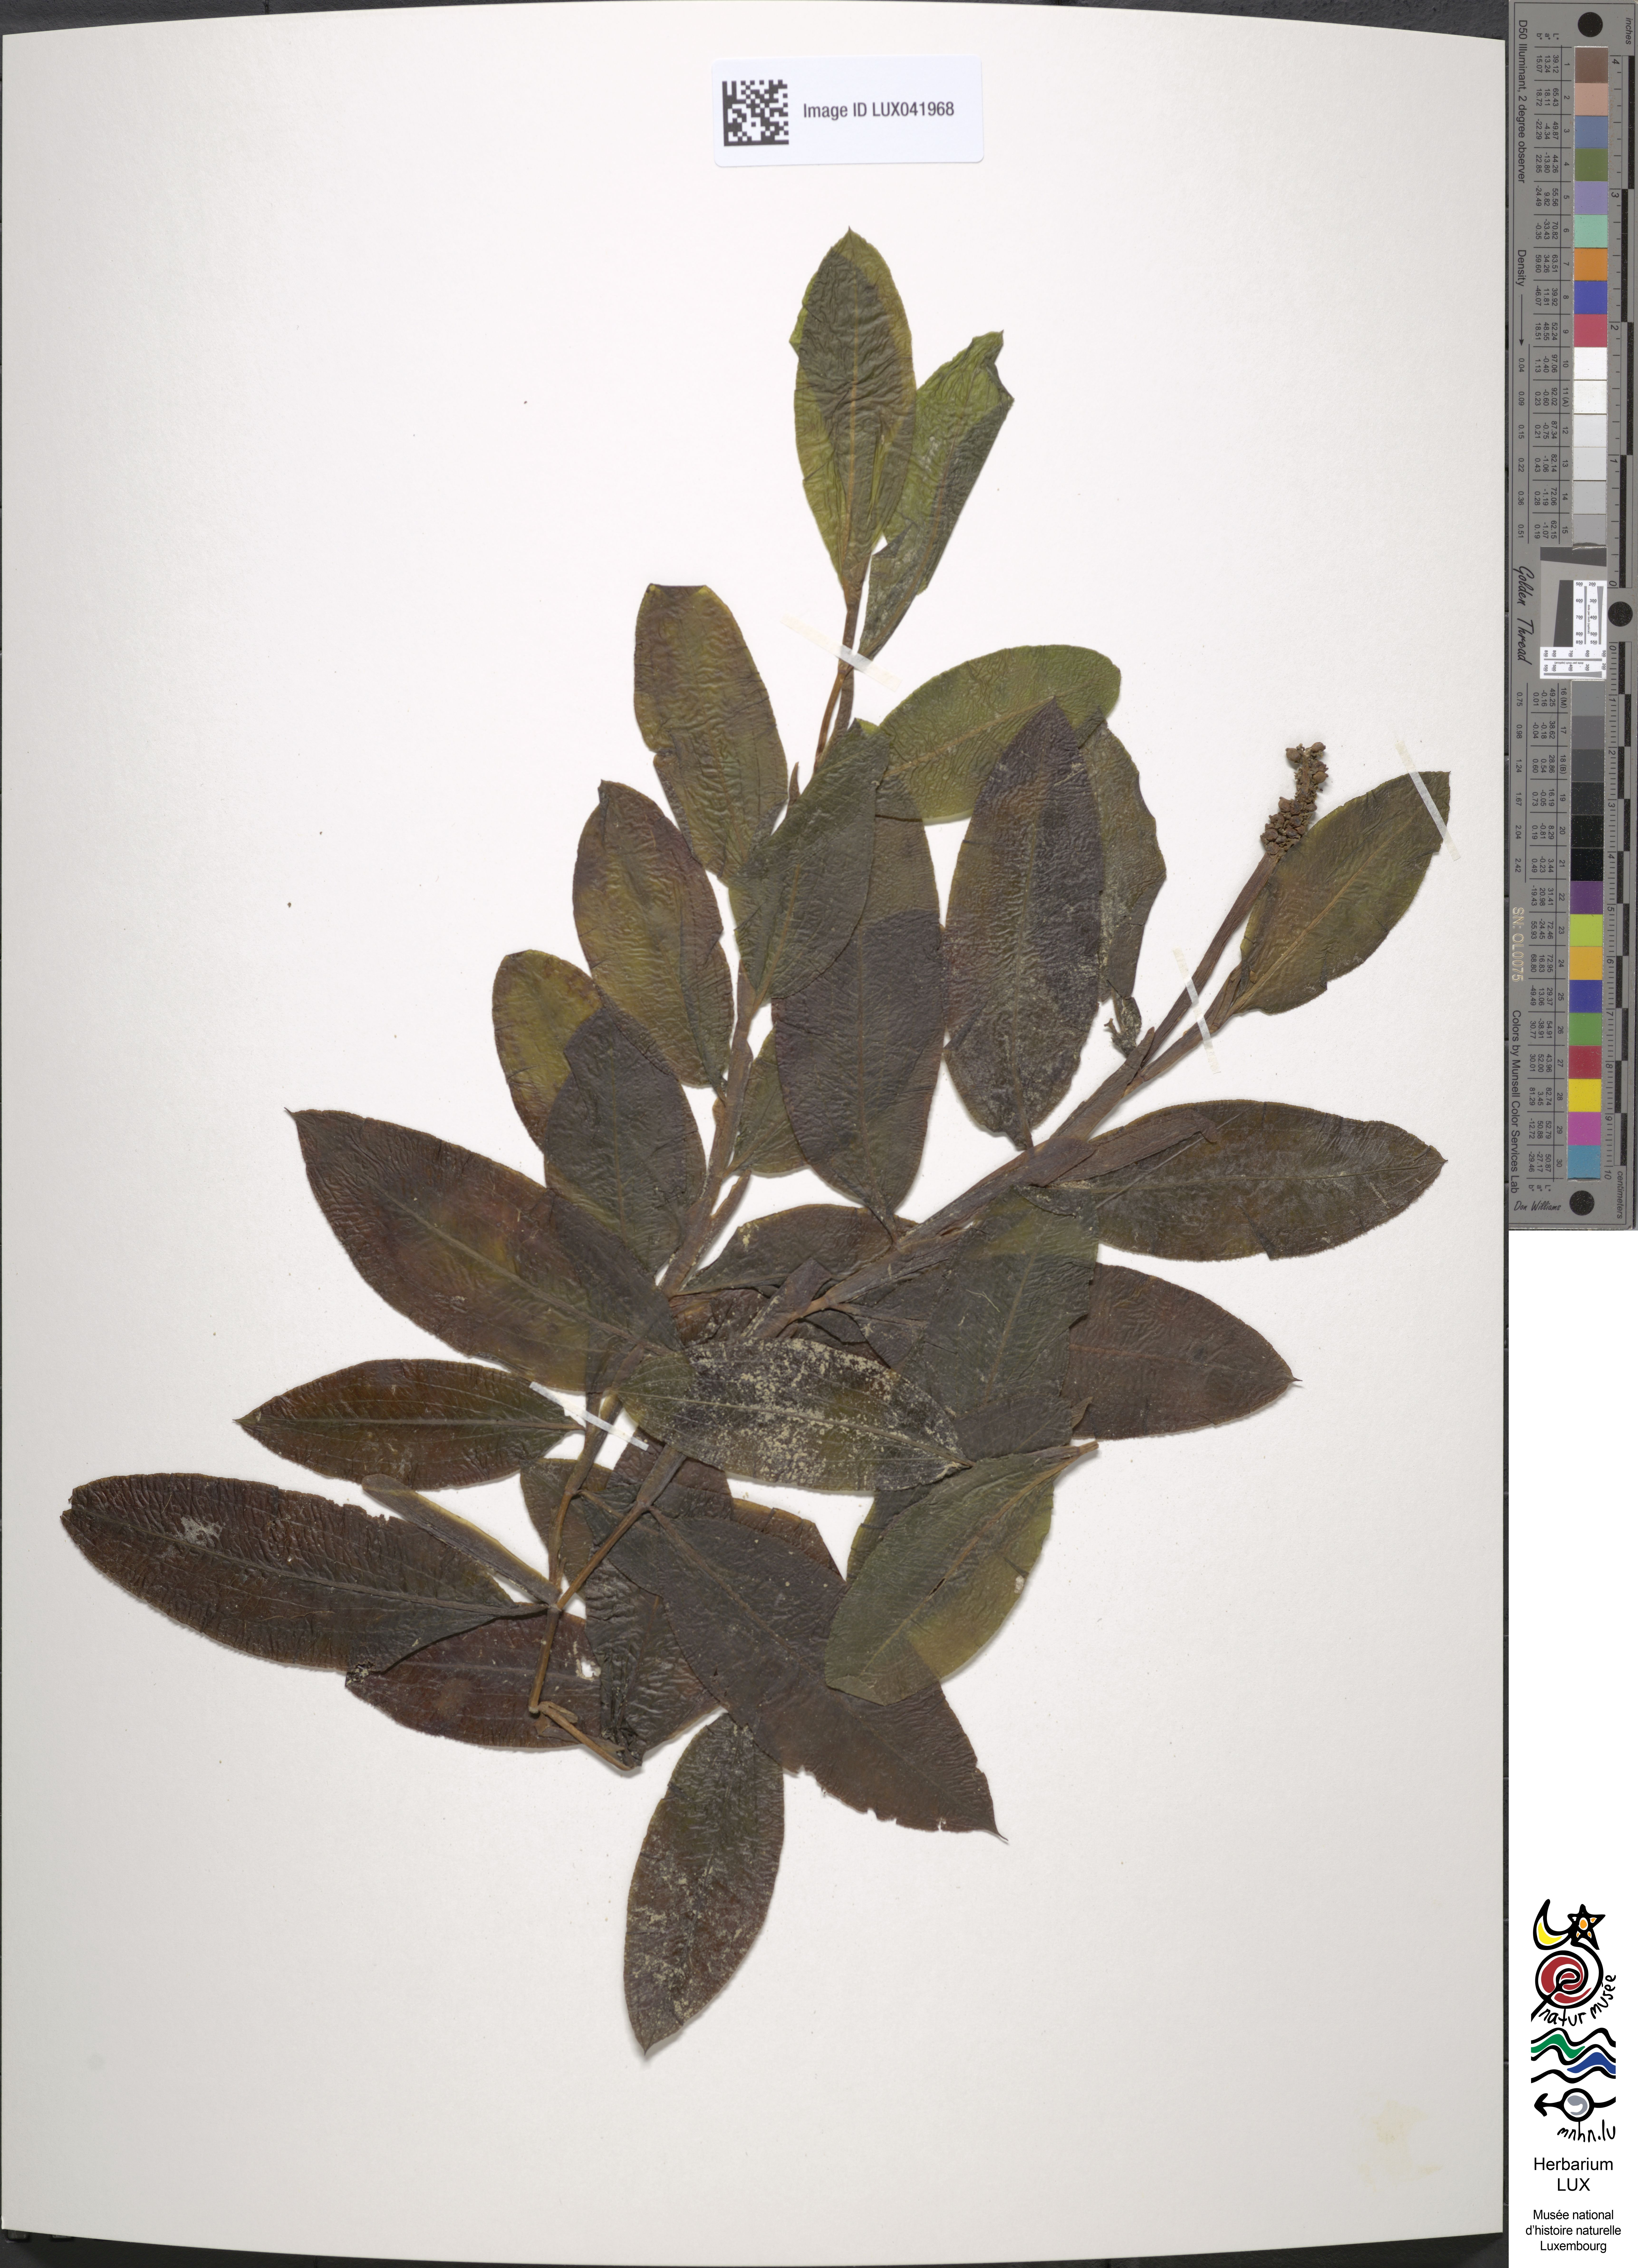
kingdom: Plantae
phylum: Tracheophyta
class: Liliopsida
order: Alismatales
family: Potamogetonaceae
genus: Potamogeton
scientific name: Potamogeton lucens
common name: Shining pondweed
